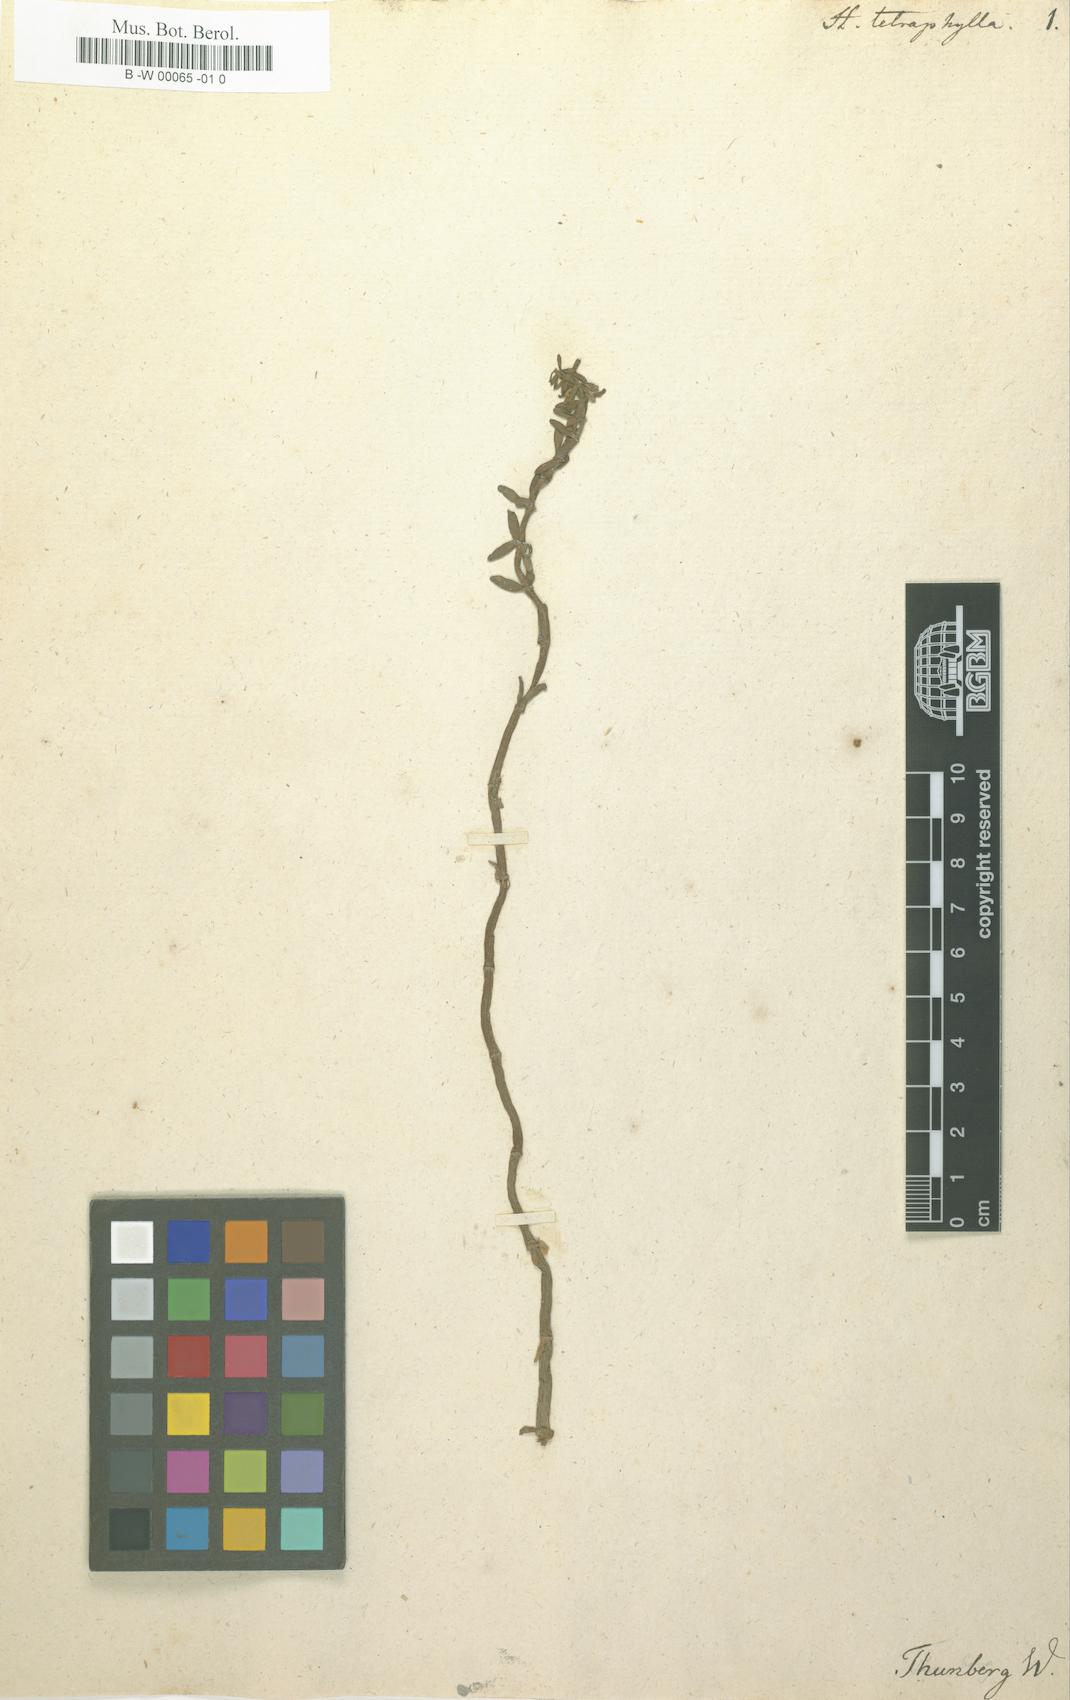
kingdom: Plantae
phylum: Tracheophyta
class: Magnoliopsida
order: Lamiales
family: Plantaginaceae
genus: Hippuris
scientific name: Hippuris tetraphylla
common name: Four-leaved mare's-tail
